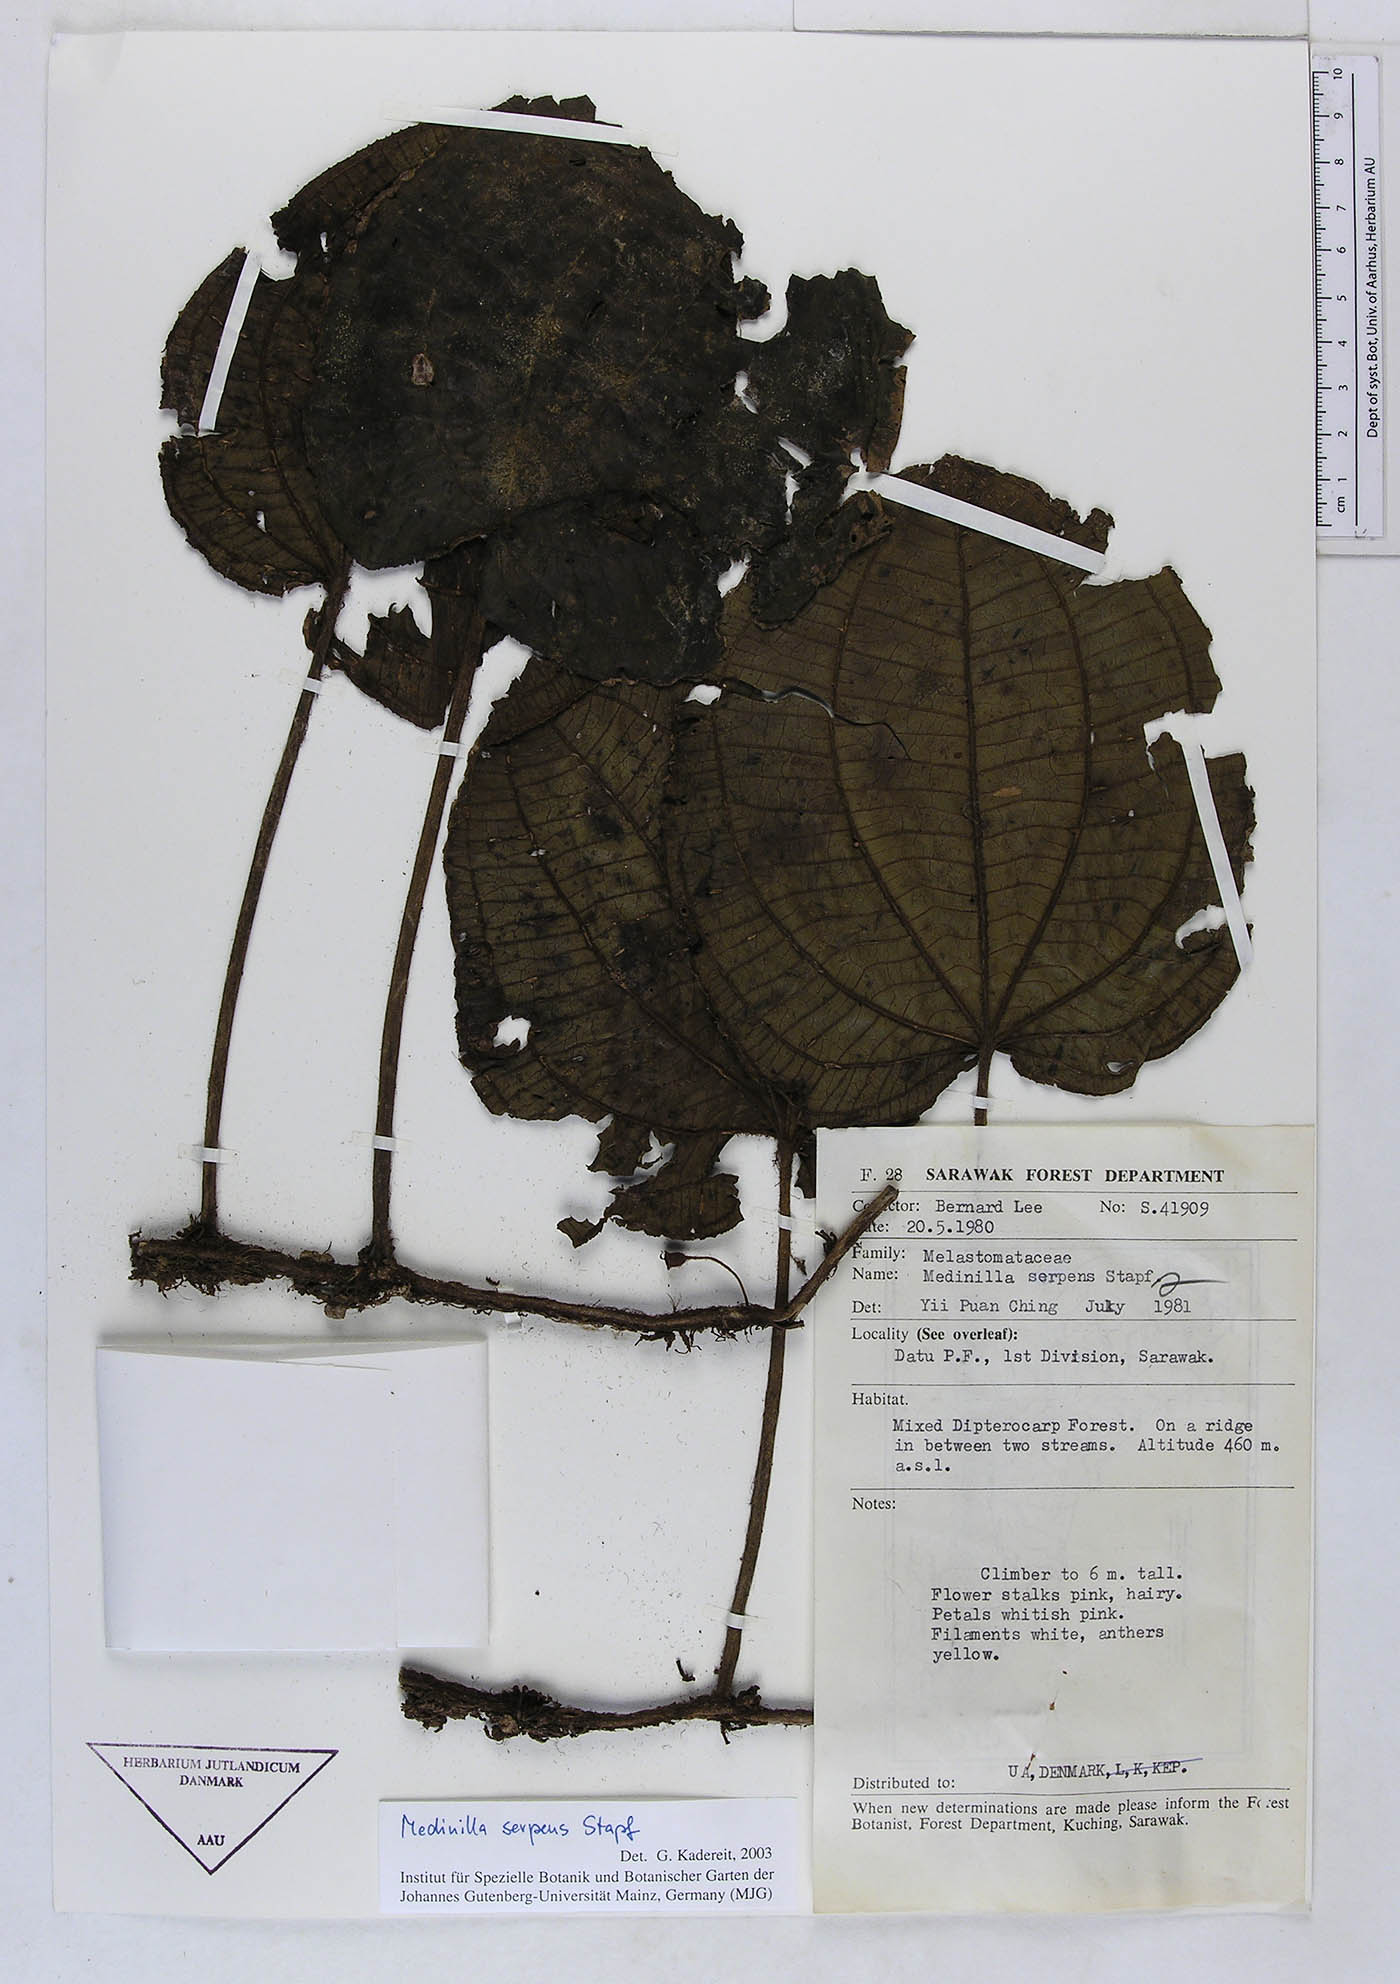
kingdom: Plantae
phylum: Tracheophyta
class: Magnoliopsida
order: Myrtales
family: Melastomataceae
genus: Heteroblemma
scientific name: Heteroblemma serpens
